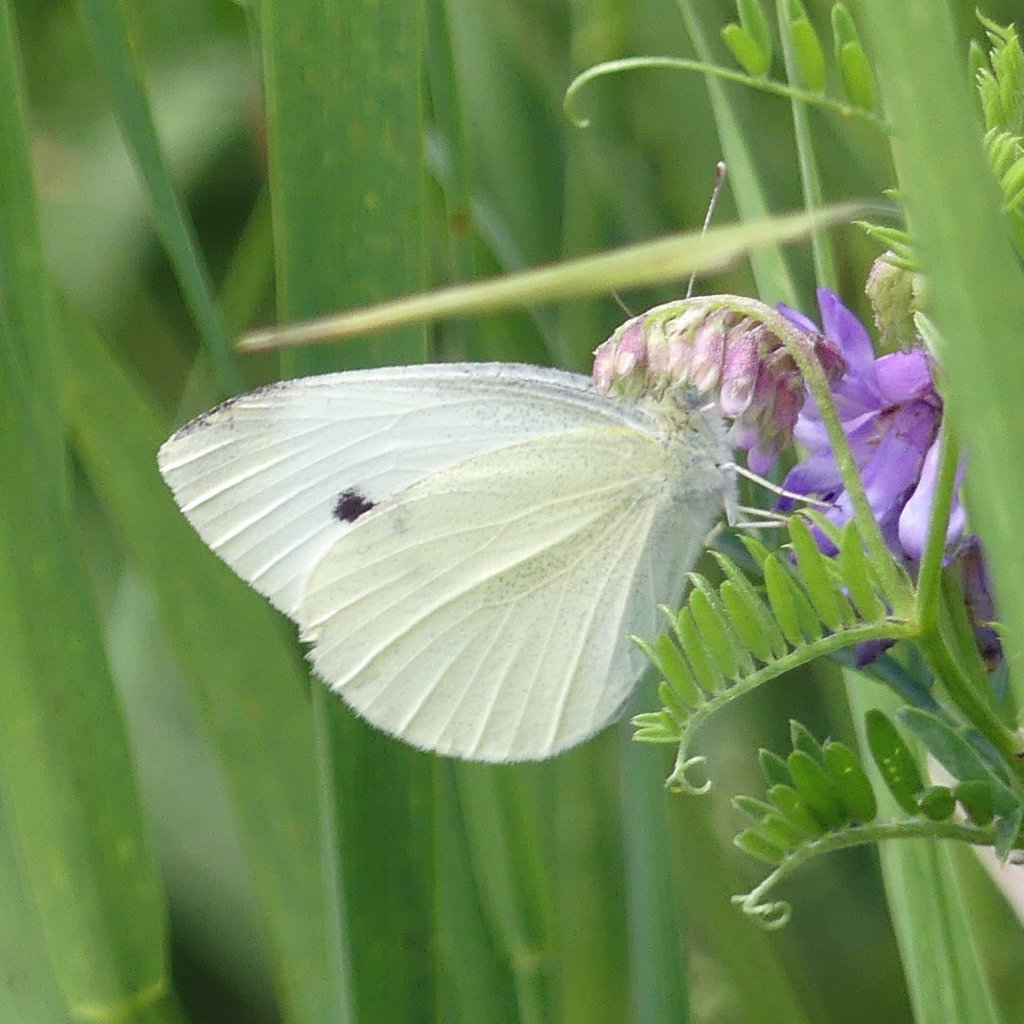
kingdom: Animalia
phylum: Arthropoda
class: Insecta
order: Lepidoptera
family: Pieridae
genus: Pieris
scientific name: Pieris rapae
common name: Cabbage White
